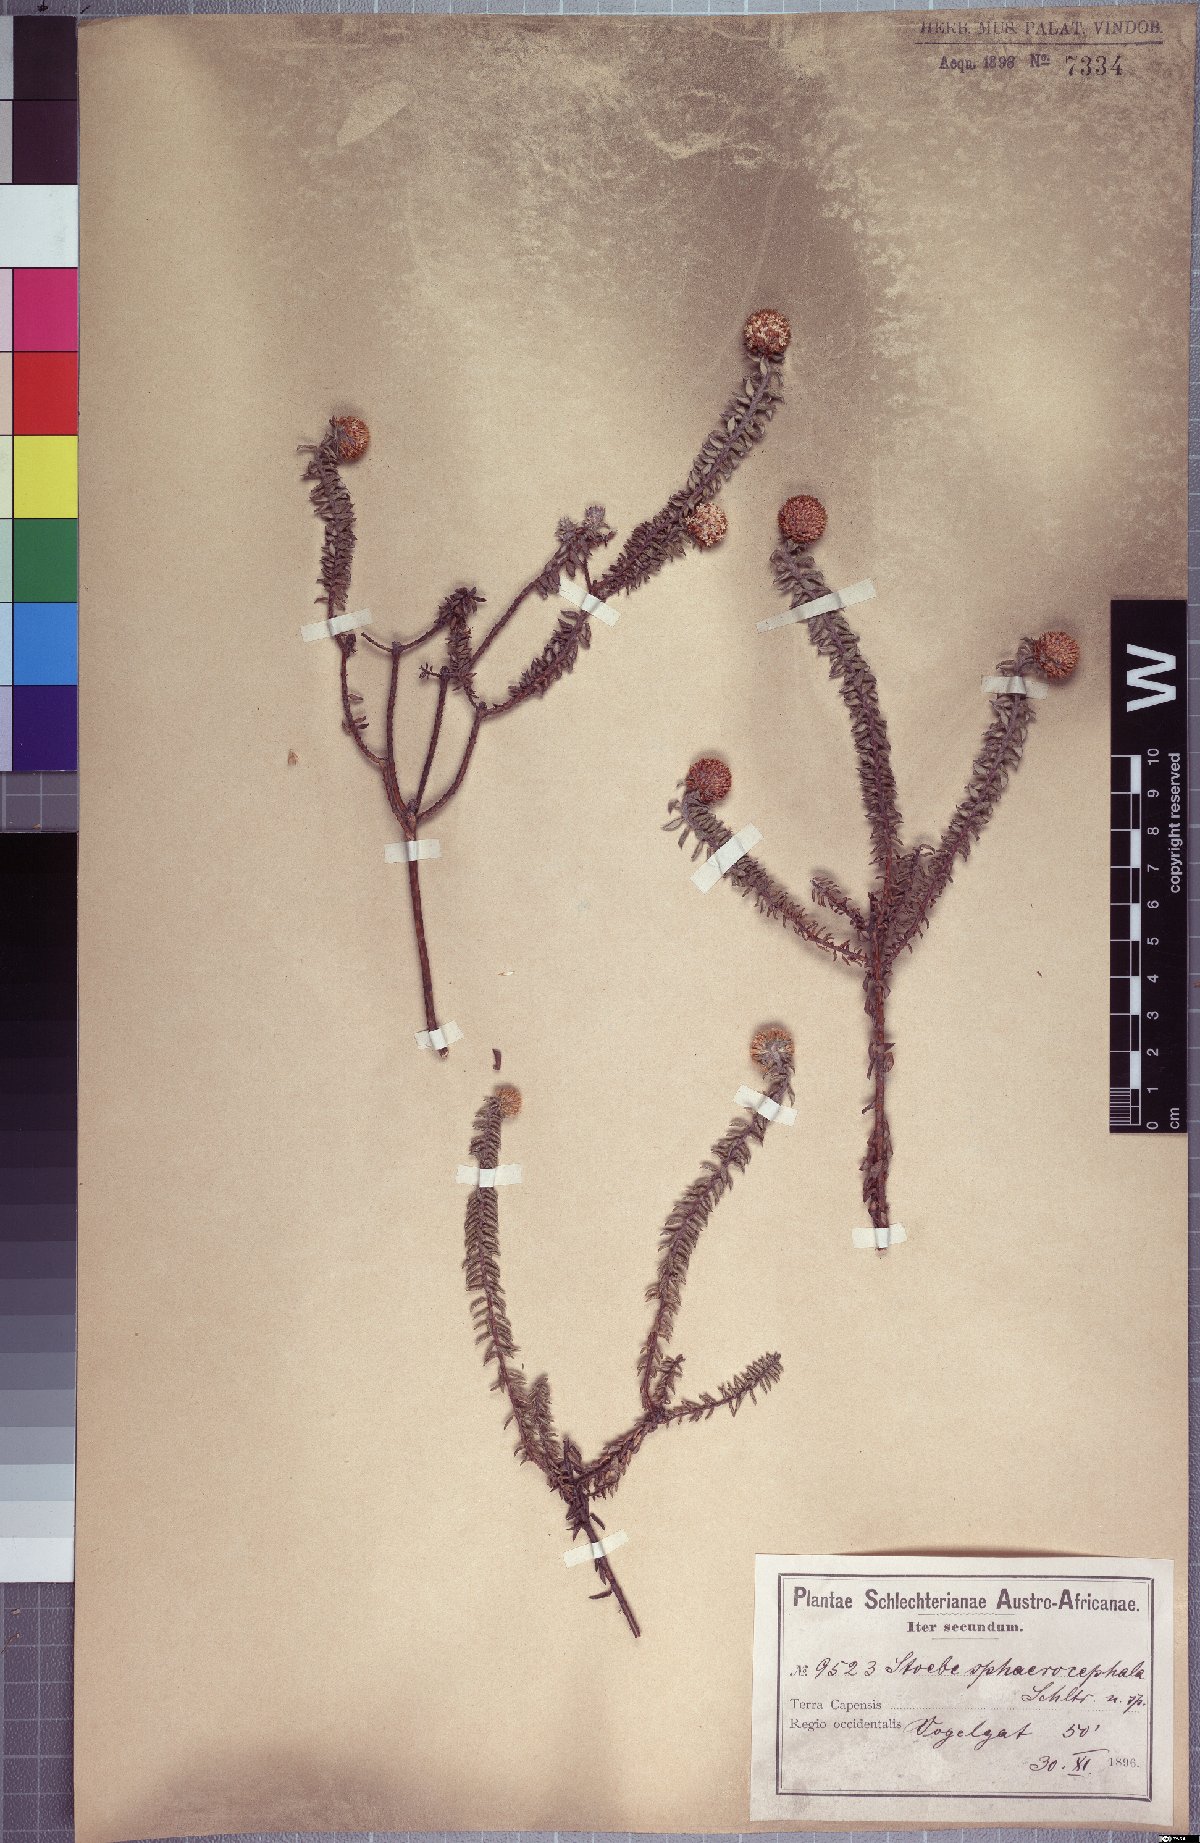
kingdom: Plantae
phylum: Tracheophyta
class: Magnoliopsida
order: Asterales
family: Asteraceae
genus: Stoebe
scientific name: Stoebe cyathuloides
